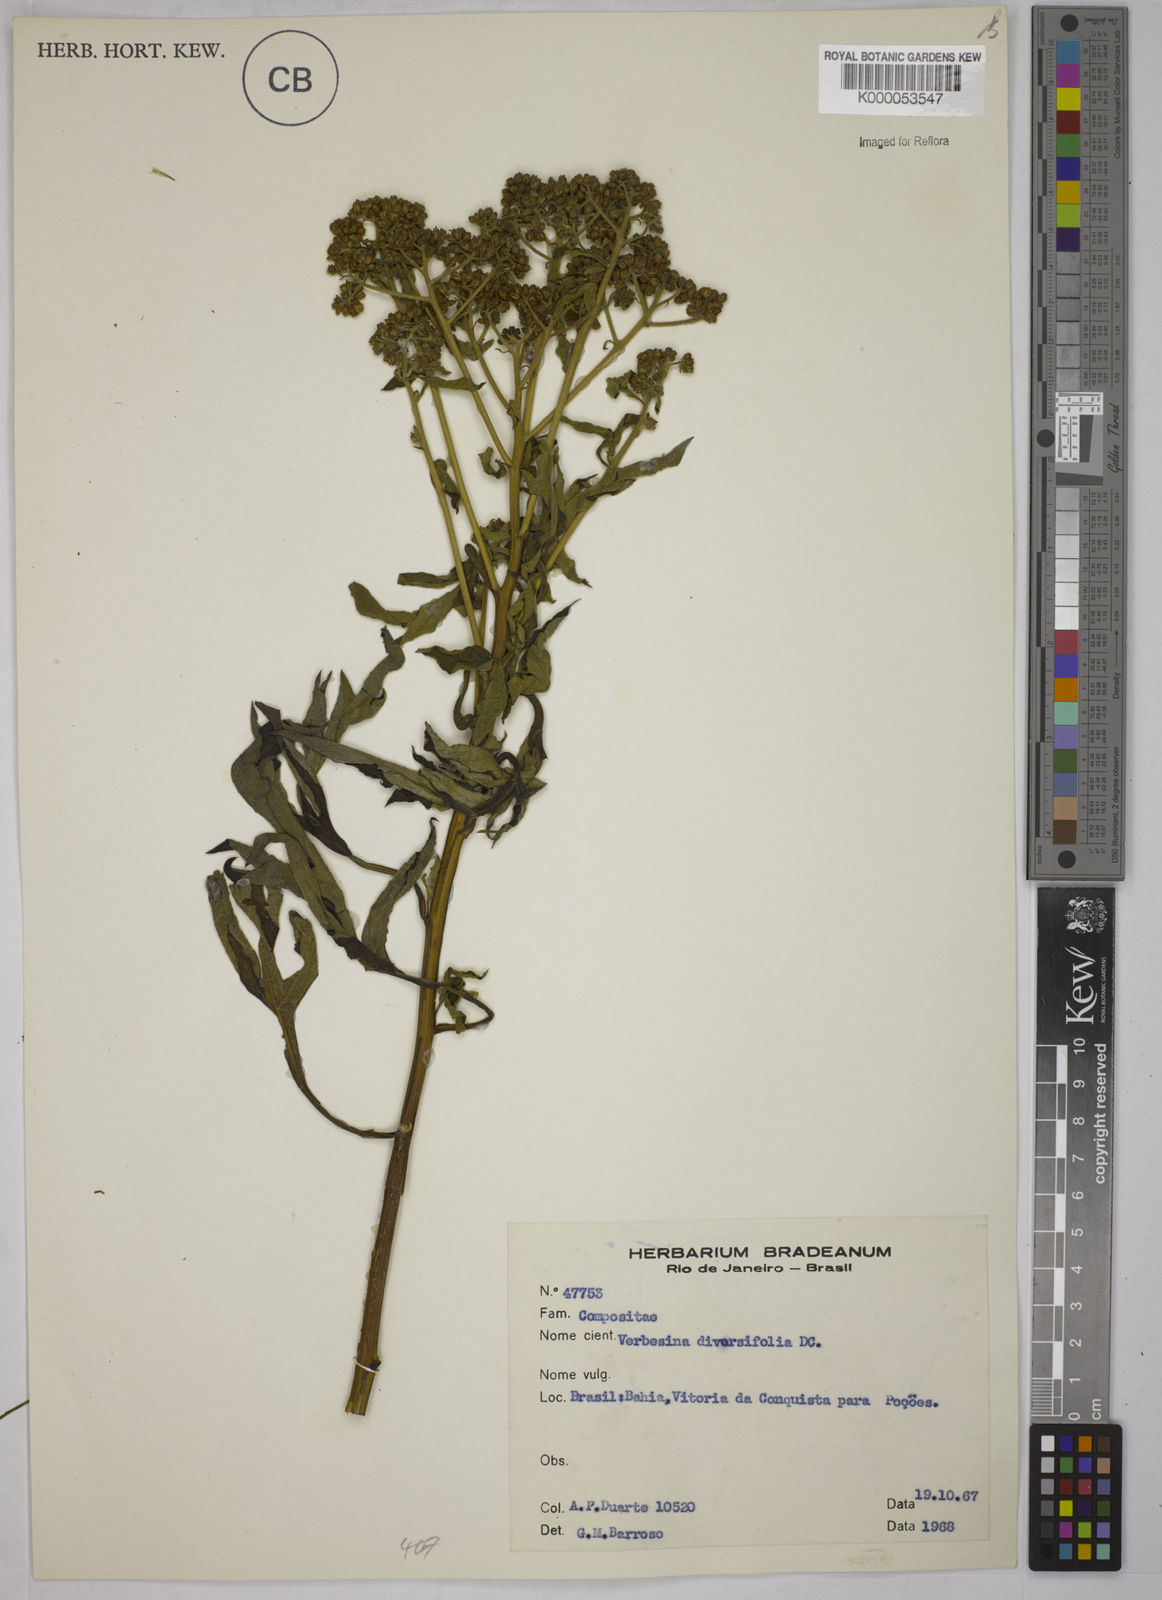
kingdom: Plantae
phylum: Tracheophyta
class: Magnoliopsida
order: Asterales
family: Asteraceae
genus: Verbesina
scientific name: Verbesina macrophylla
